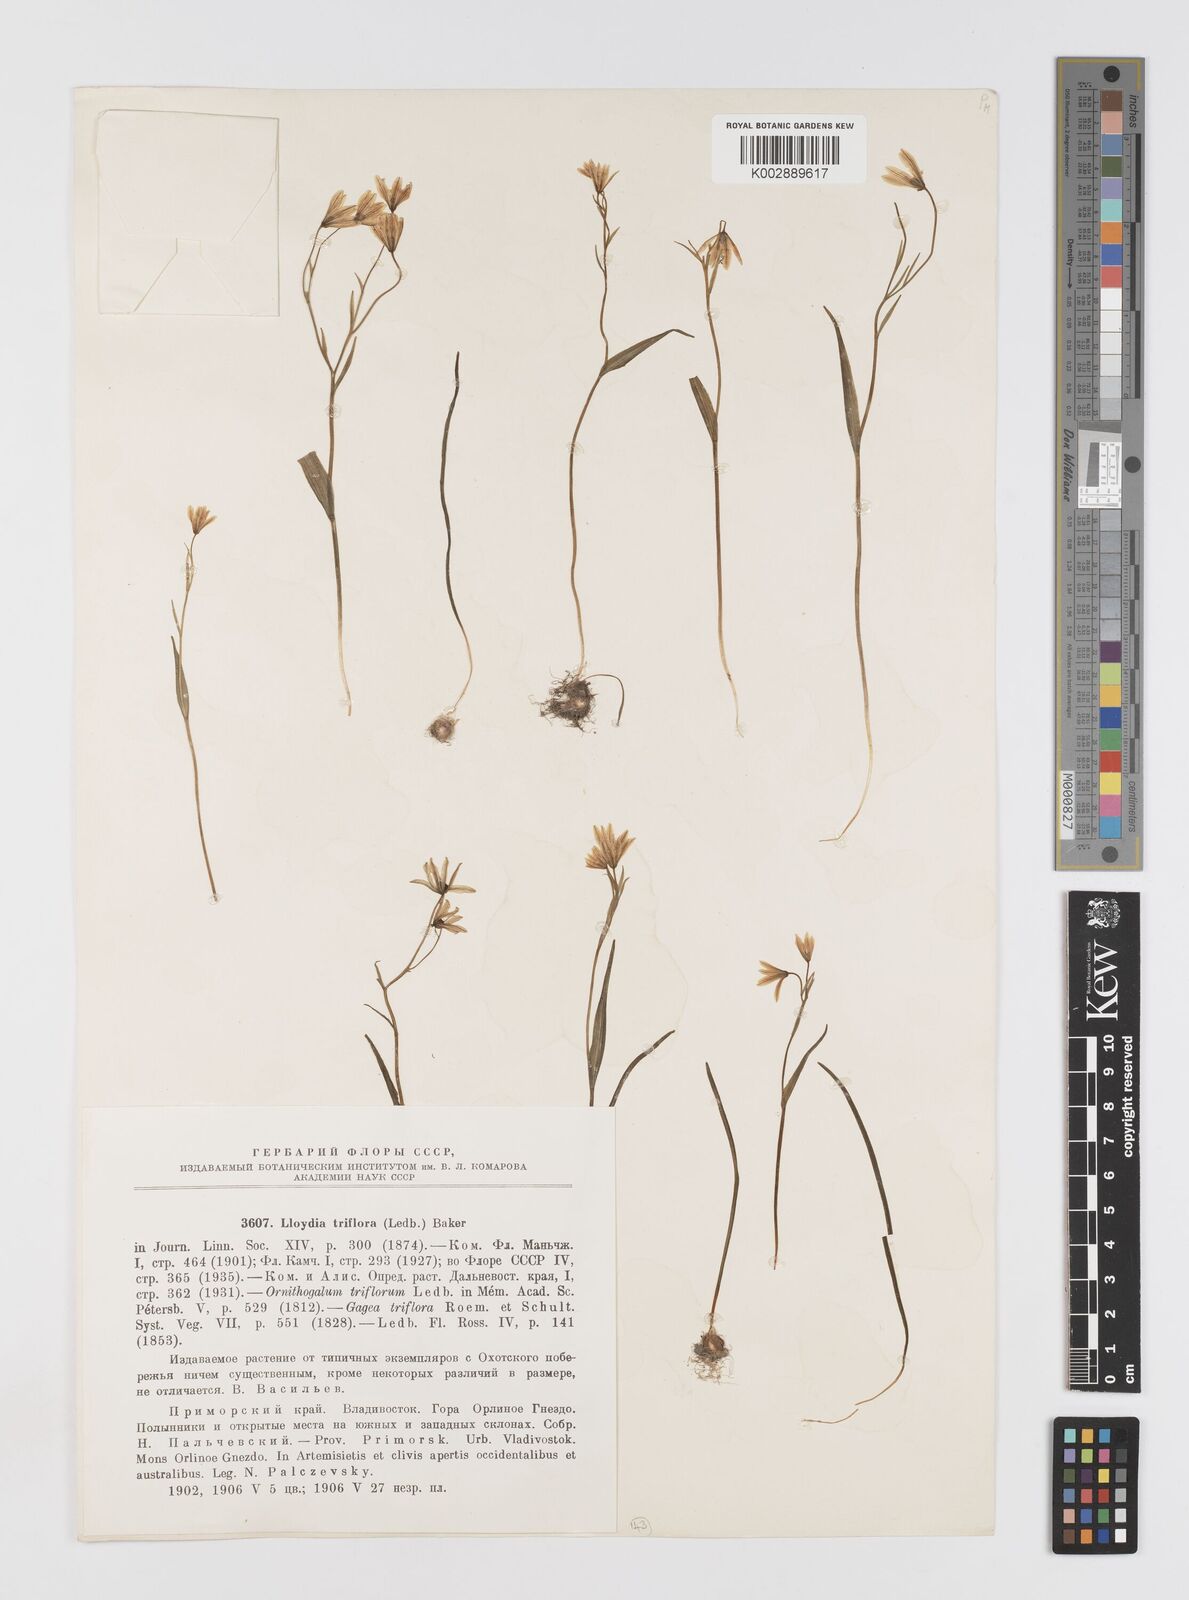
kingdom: Plantae
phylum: Tracheophyta
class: Liliopsida
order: Liliales
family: Liliaceae
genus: Gagea
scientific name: Gagea triflora
